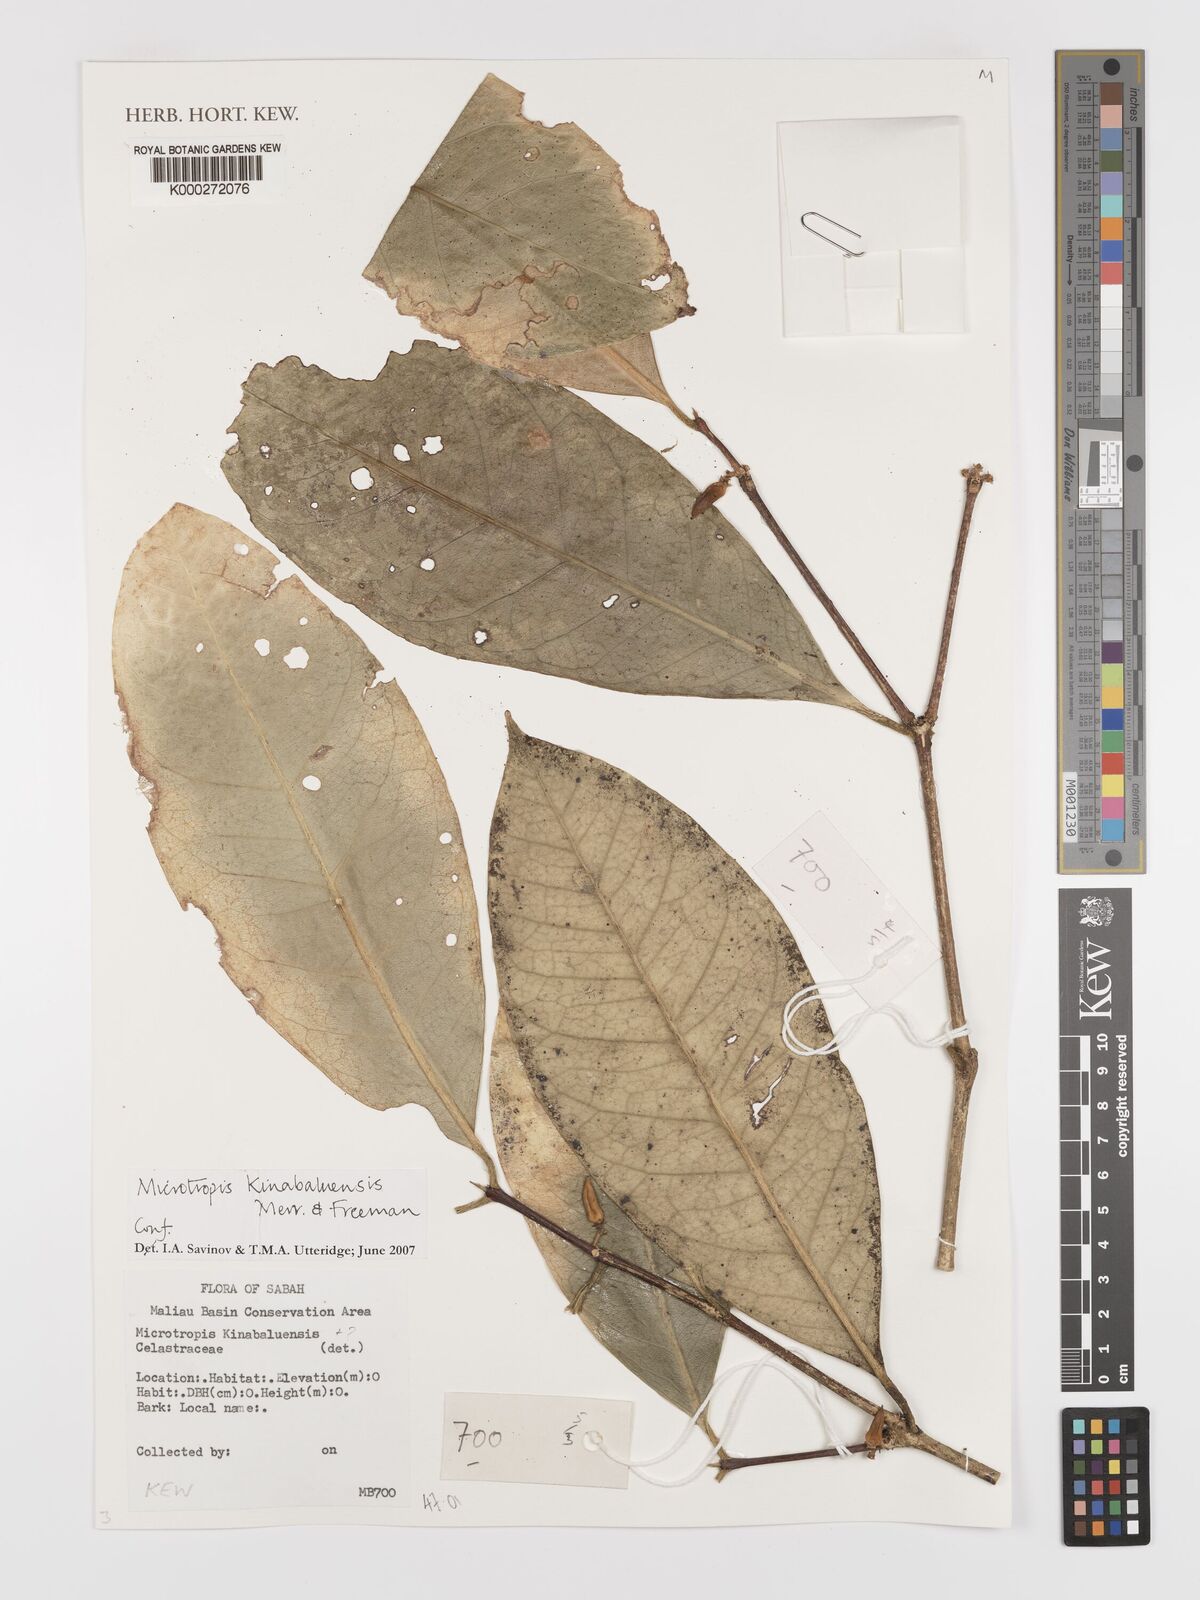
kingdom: Plantae
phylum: Tracheophyta
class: Magnoliopsida
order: Celastrales
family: Celastraceae
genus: Microtropis
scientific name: Microtropis kinabaluensis
